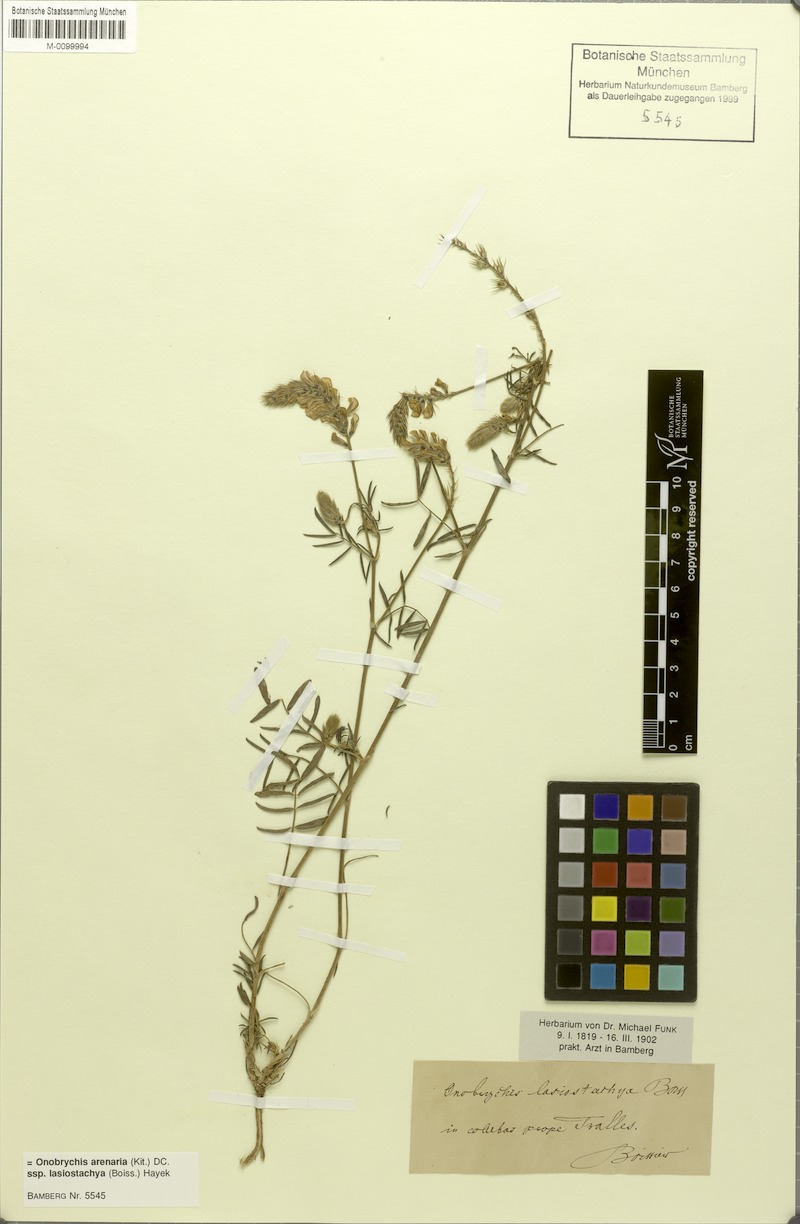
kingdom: Plantae
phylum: Tracheophyta
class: Magnoliopsida
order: Fabales
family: Fabaceae
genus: Onobrychis
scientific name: Onobrychis arenaria
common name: Sand esparcet
